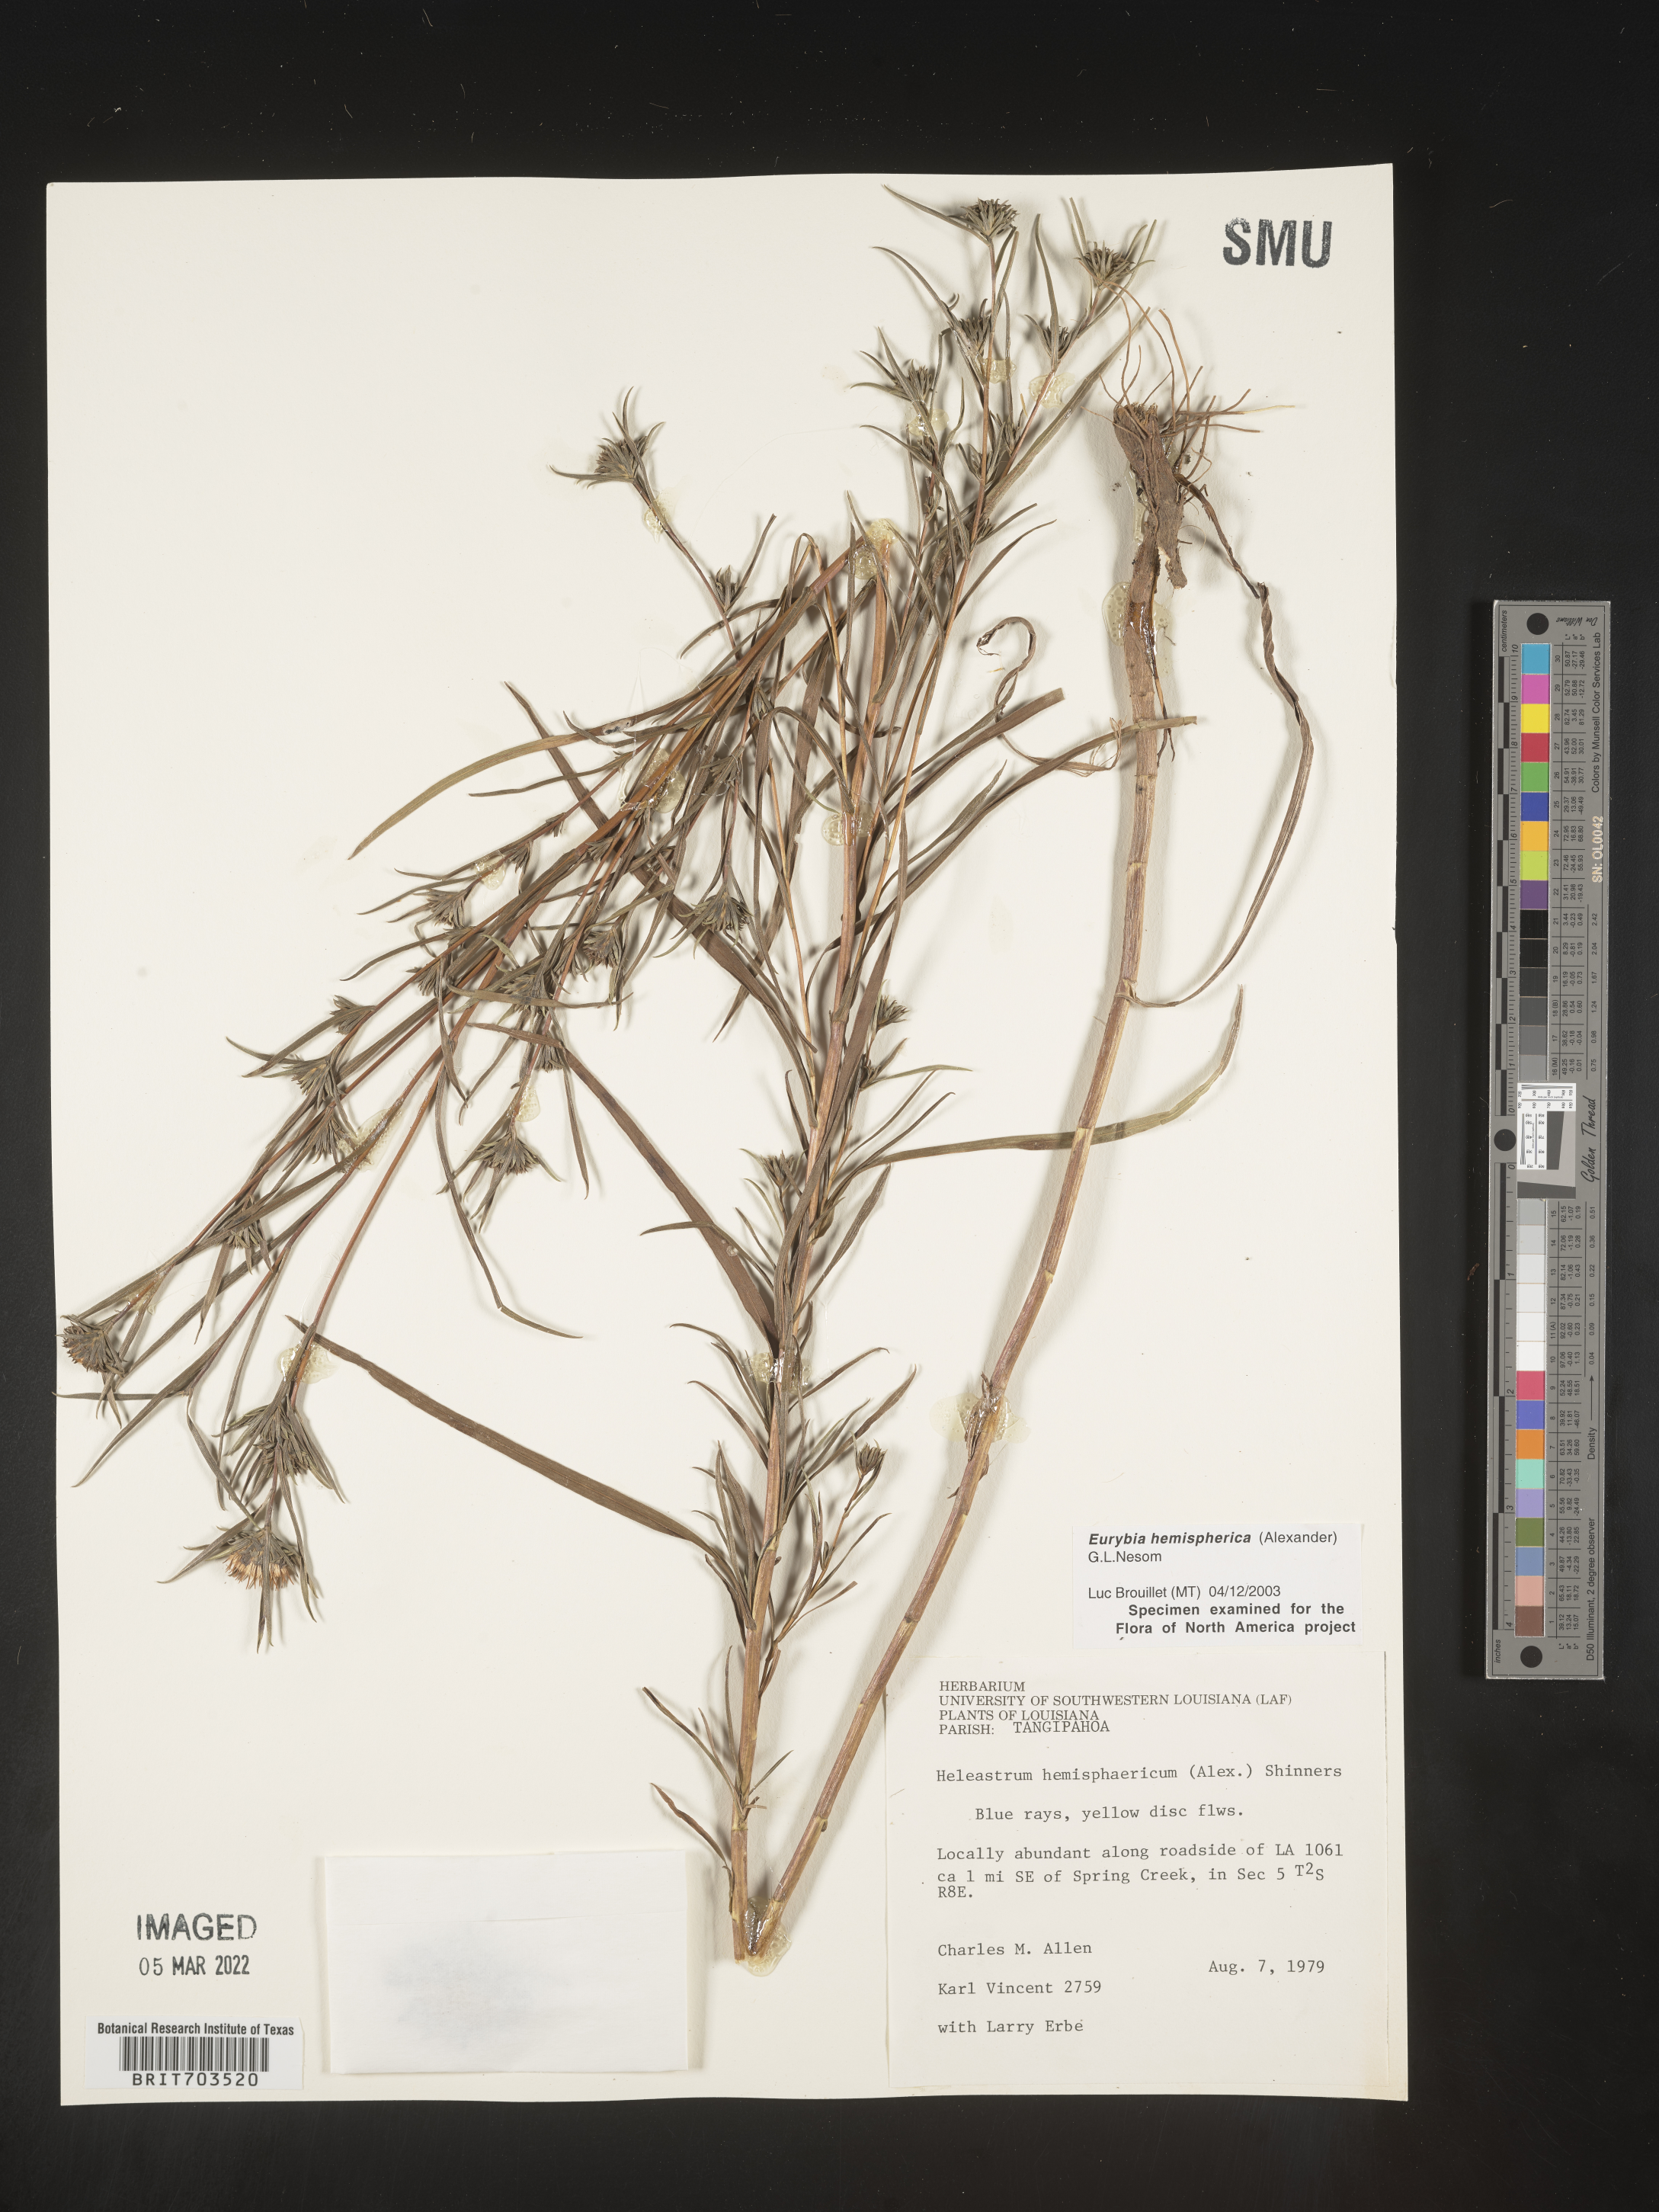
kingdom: Plantae
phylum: Tracheophyta
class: Magnoliopsida
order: Asterales
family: Asteraceae
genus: Eurybia
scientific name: Eurybia hemispherica
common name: Showy aster
